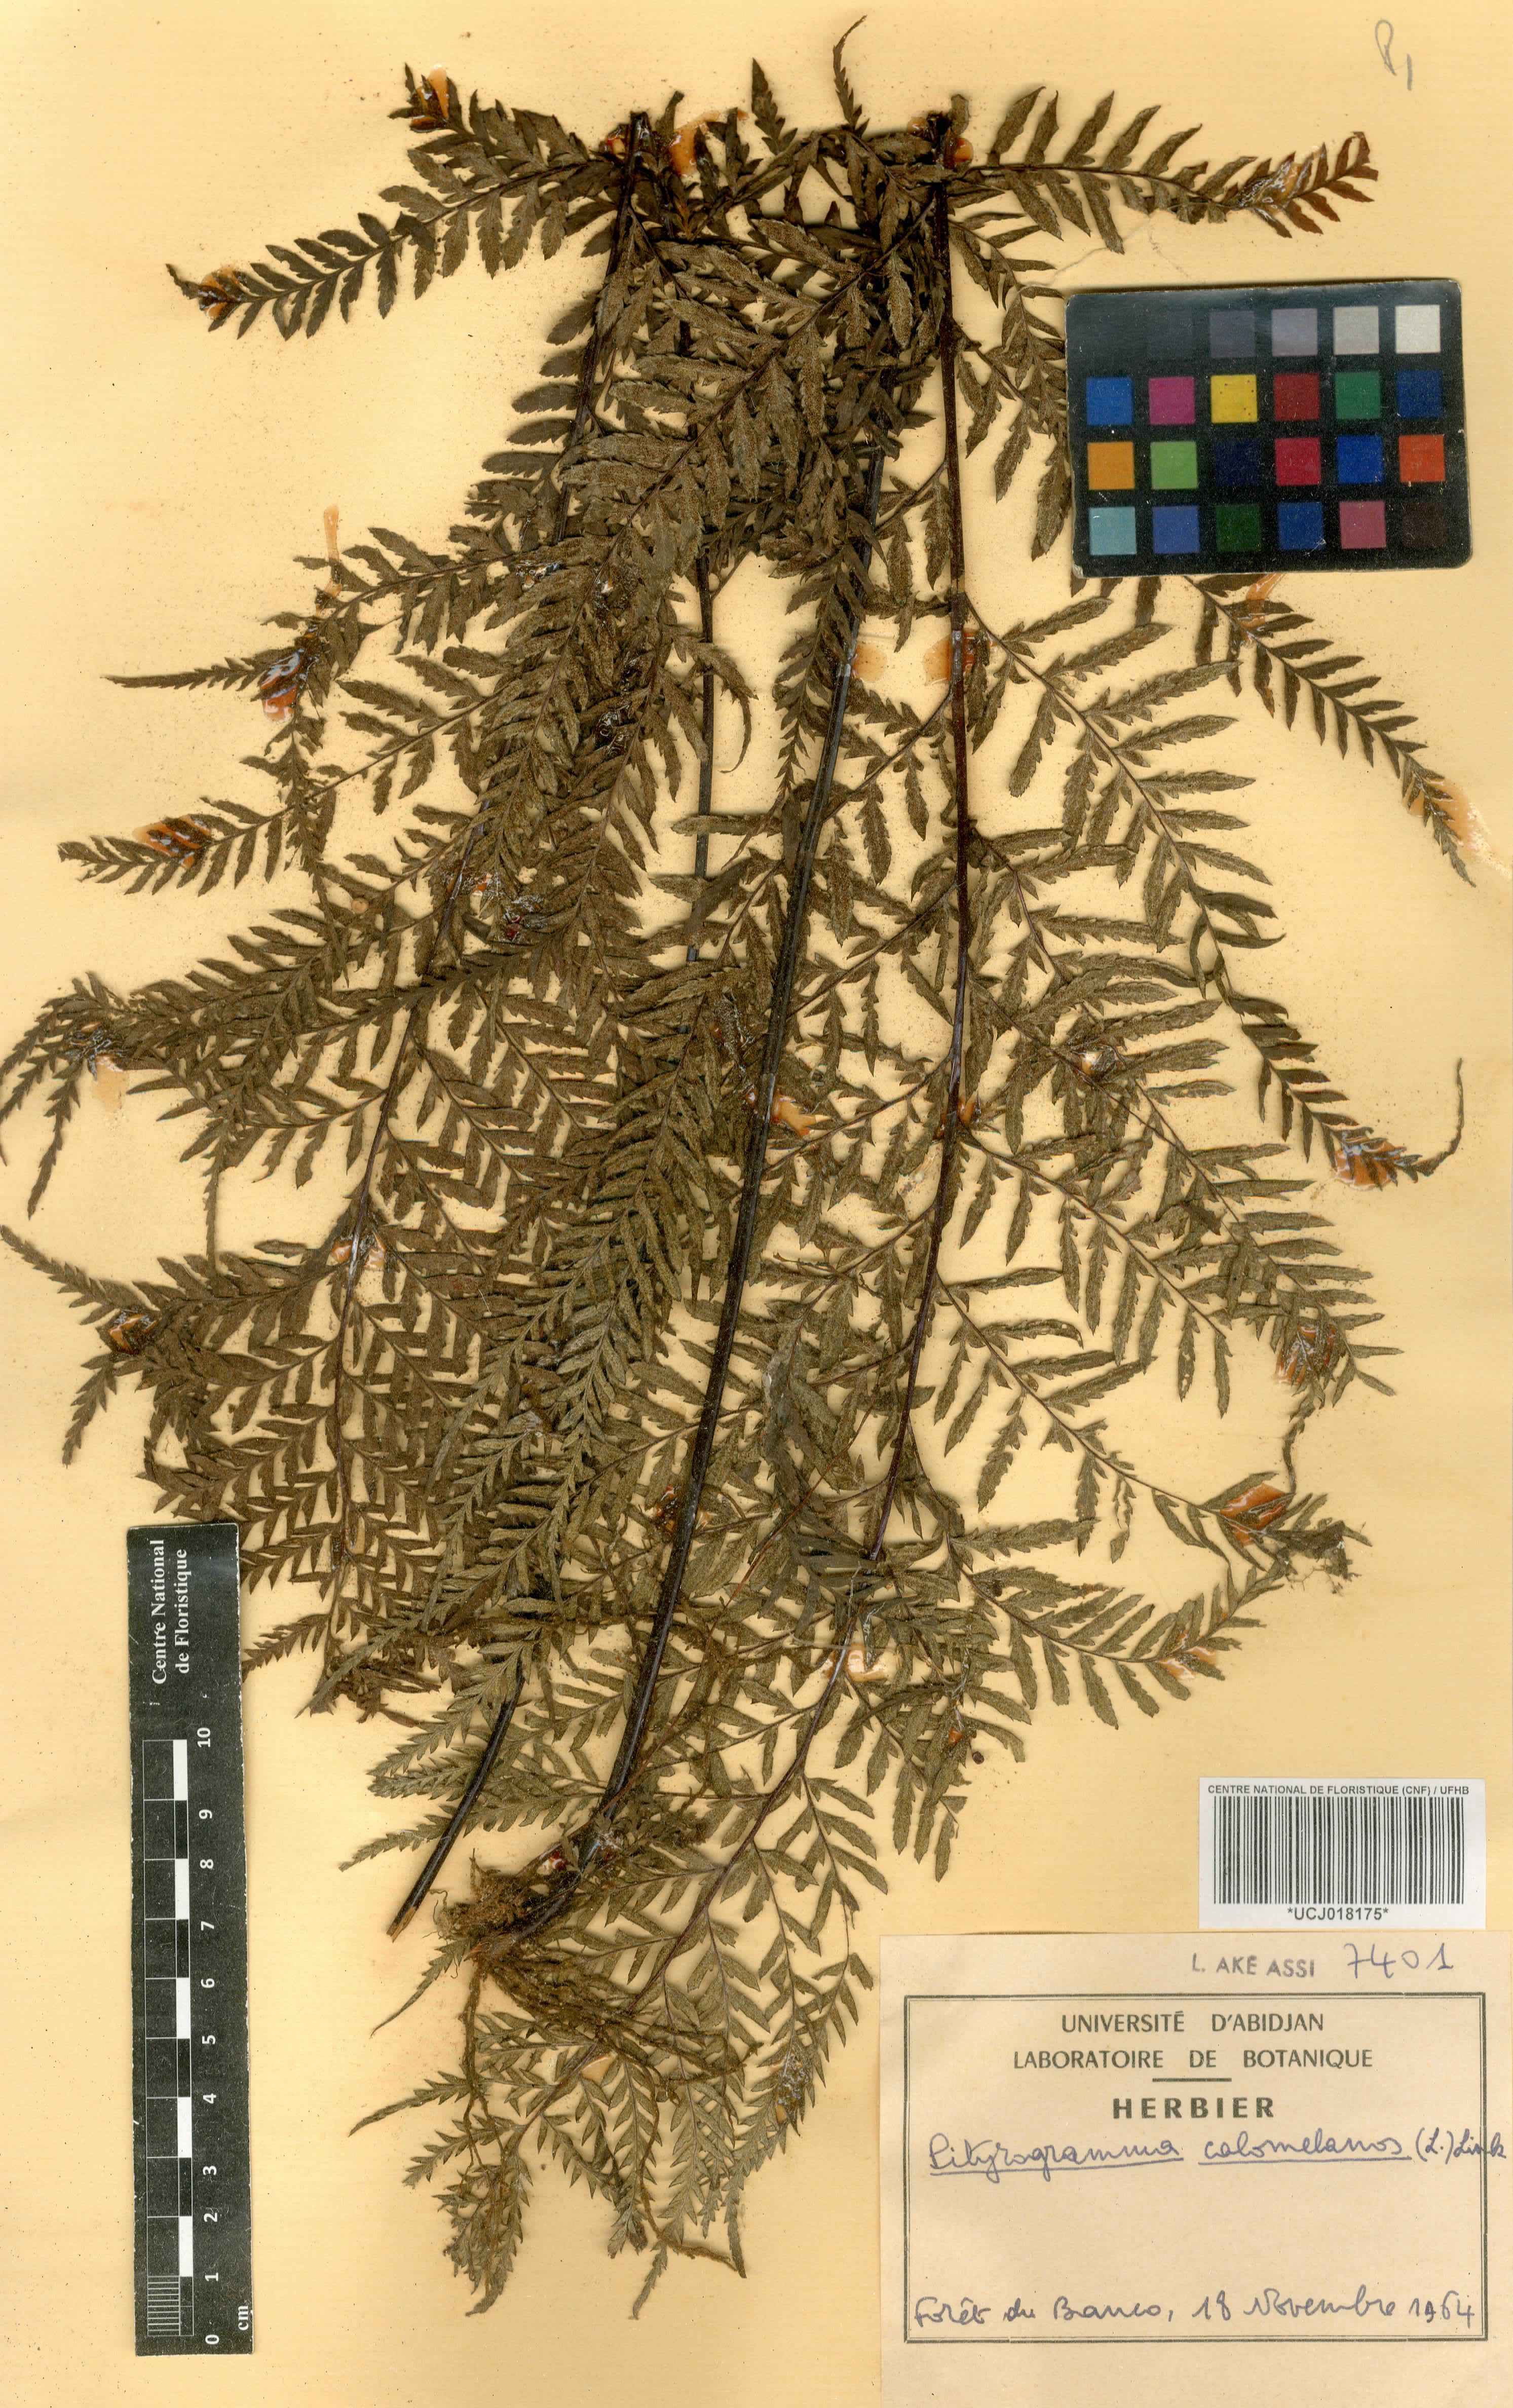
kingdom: Plantae
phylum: Tracheophyta
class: Polypodiopsida
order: Polypodiales
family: Pteridaceae
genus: Pityrogramma
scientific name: Pityrogramma calomelanos
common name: Dixie silverback fern
